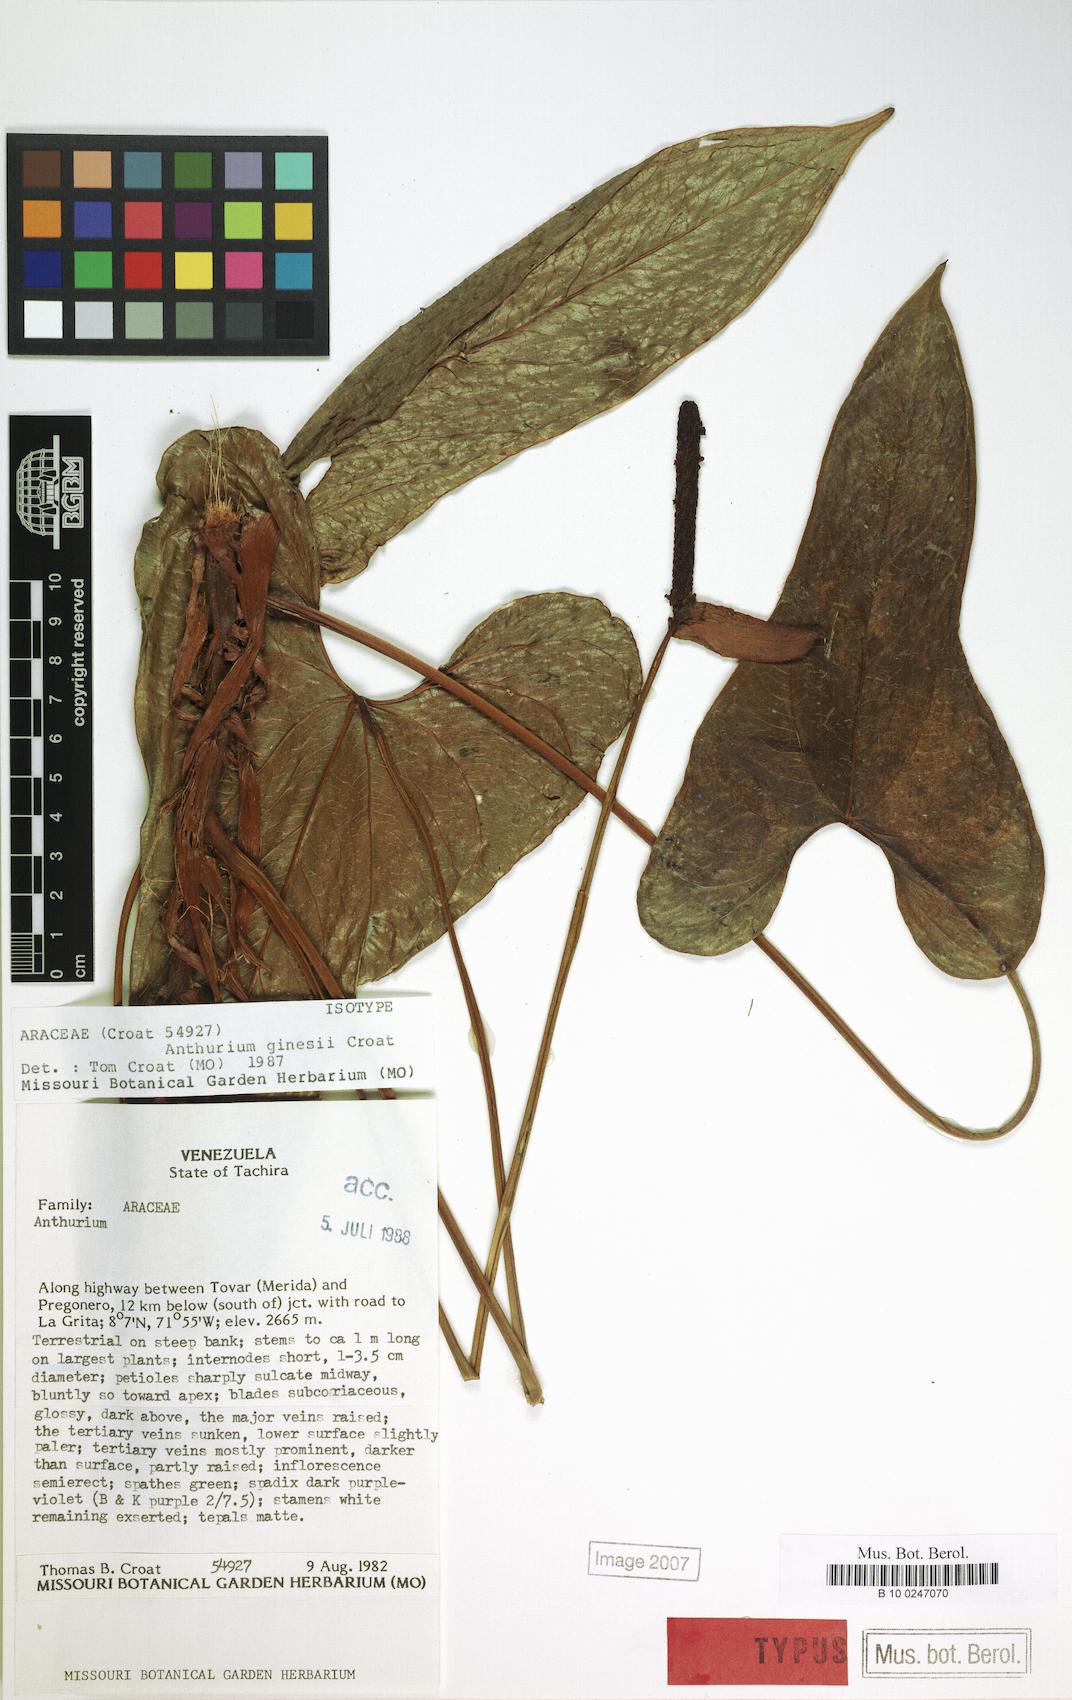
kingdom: Plantae
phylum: Tracheophyta
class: Liliopsida
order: Alismatales
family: Araceae
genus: Anthurium
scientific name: Anthurium ginesii
